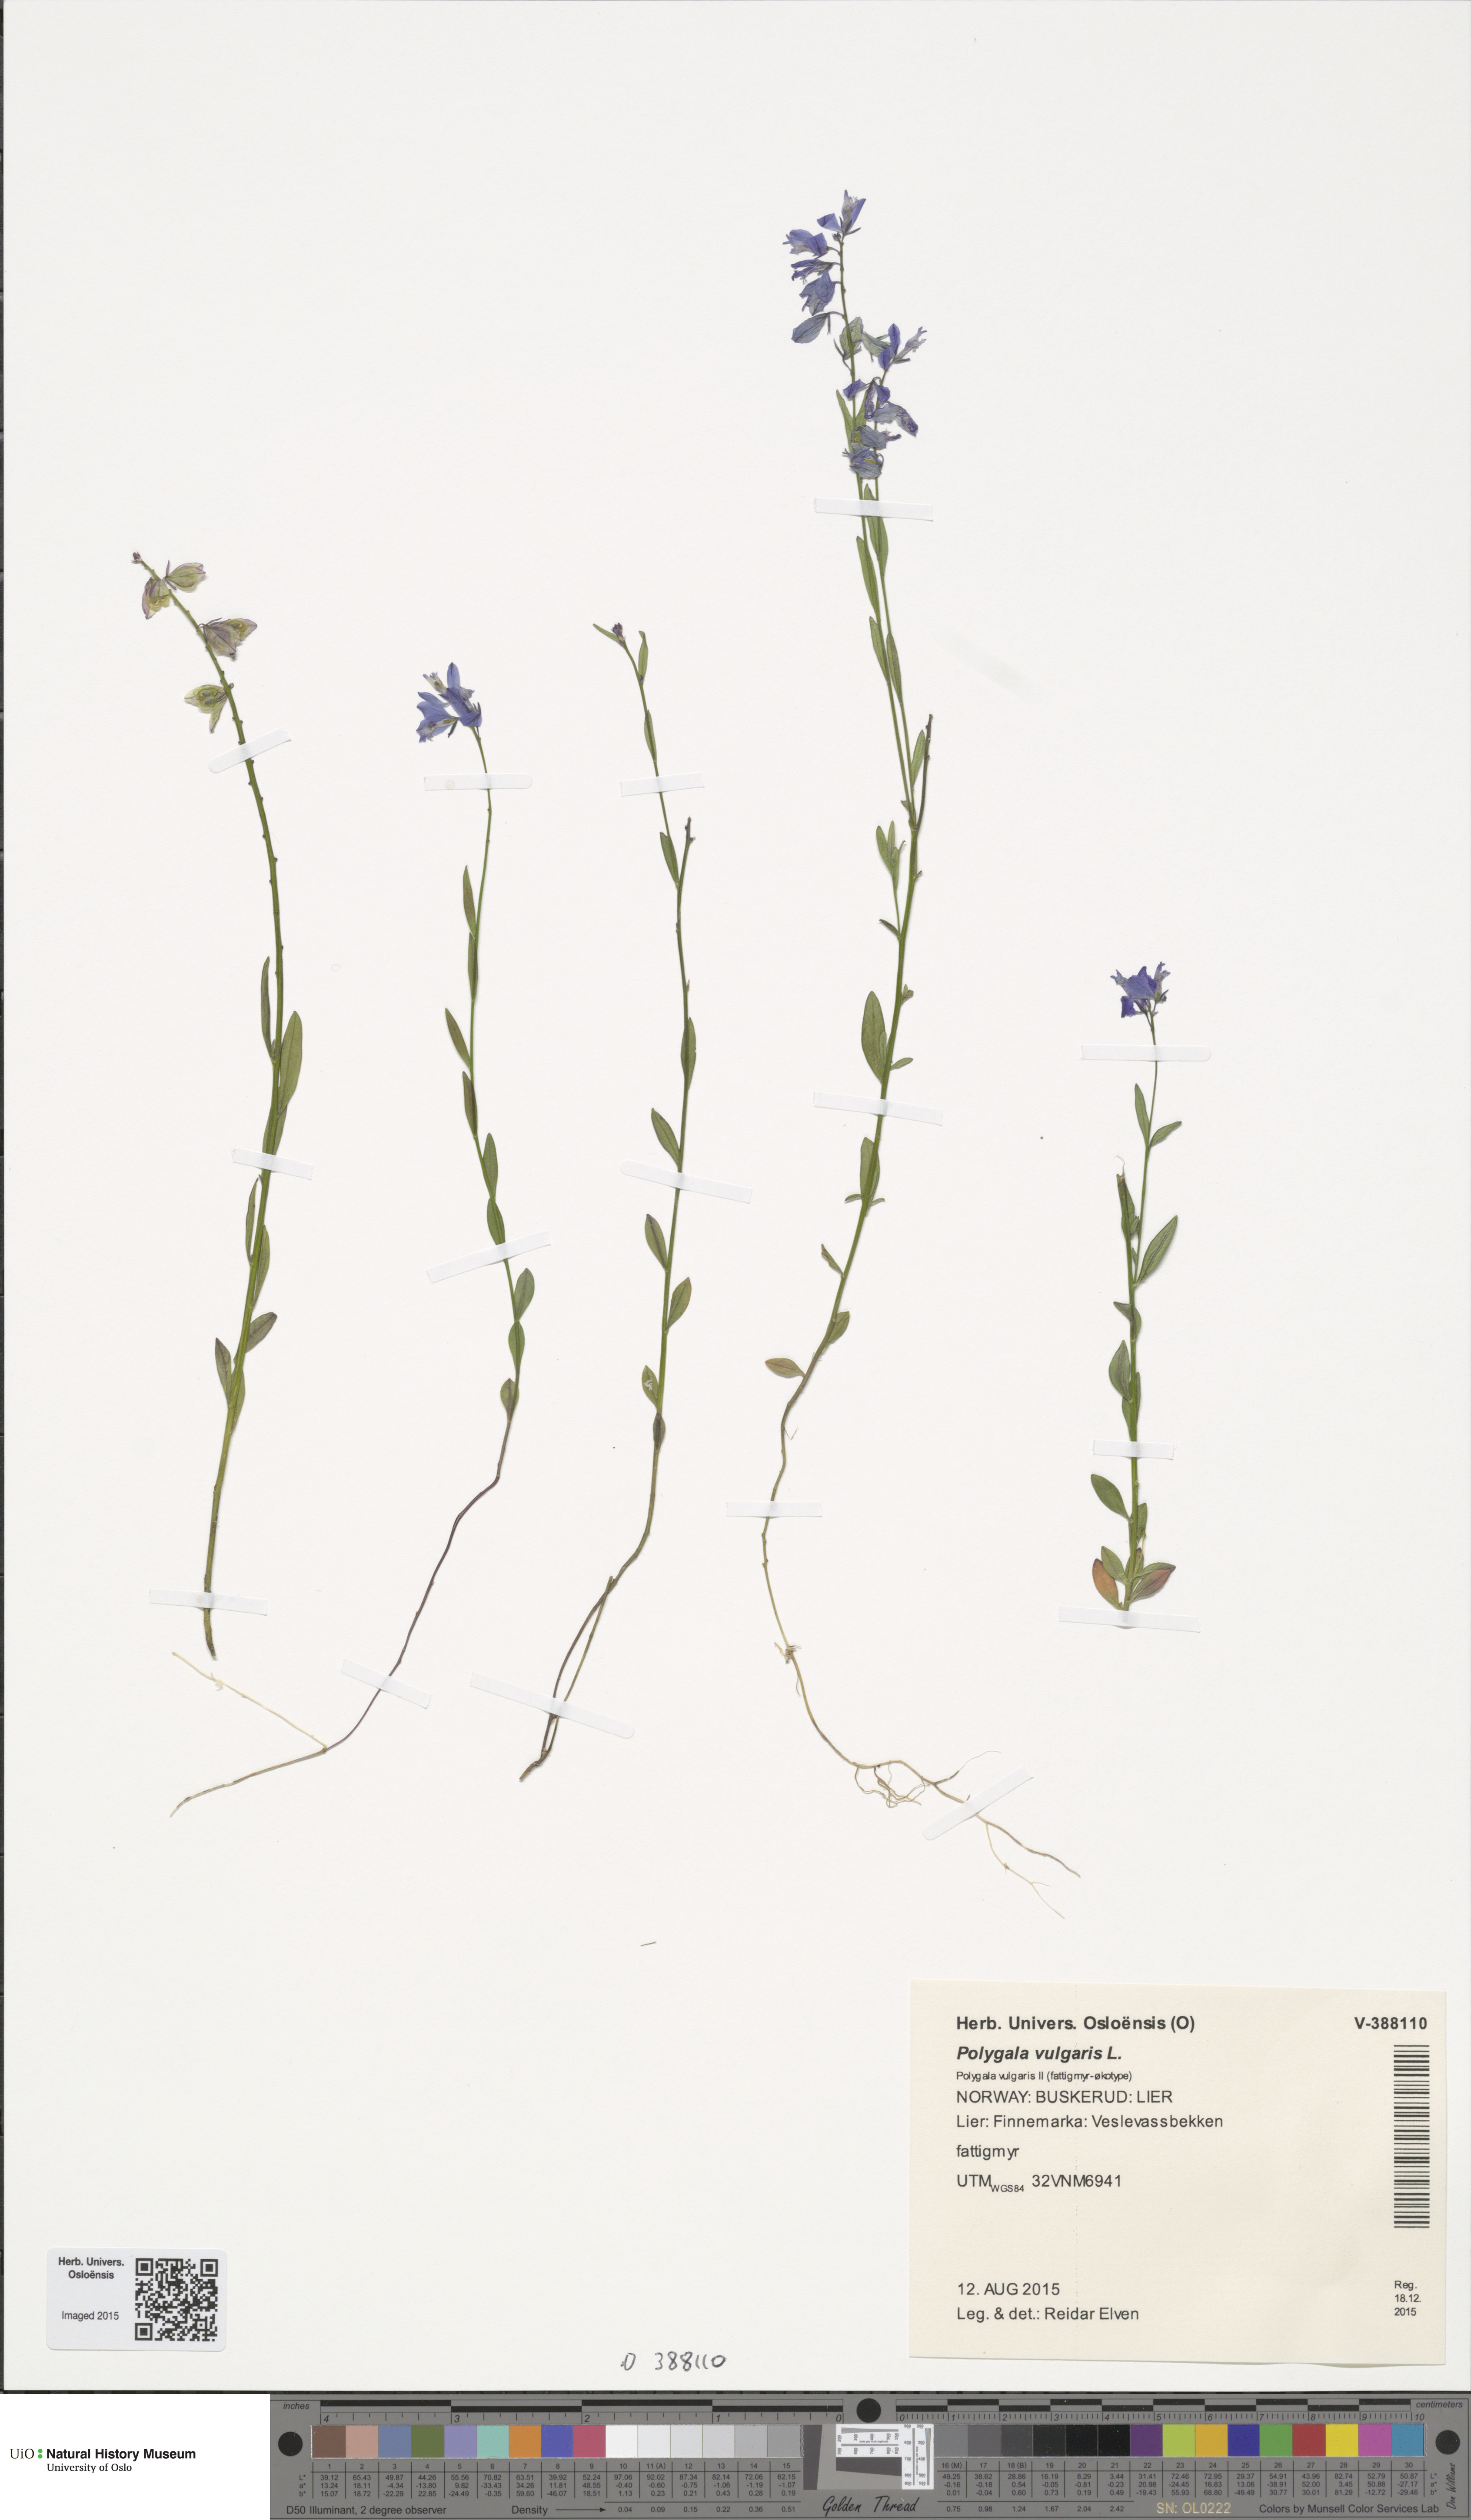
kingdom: Plantae
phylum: Tracheophyta
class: Magnoliopsida
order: Fabales
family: Polygalaceae
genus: Polygala
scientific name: Polygala vulgaris
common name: Common milkwort
